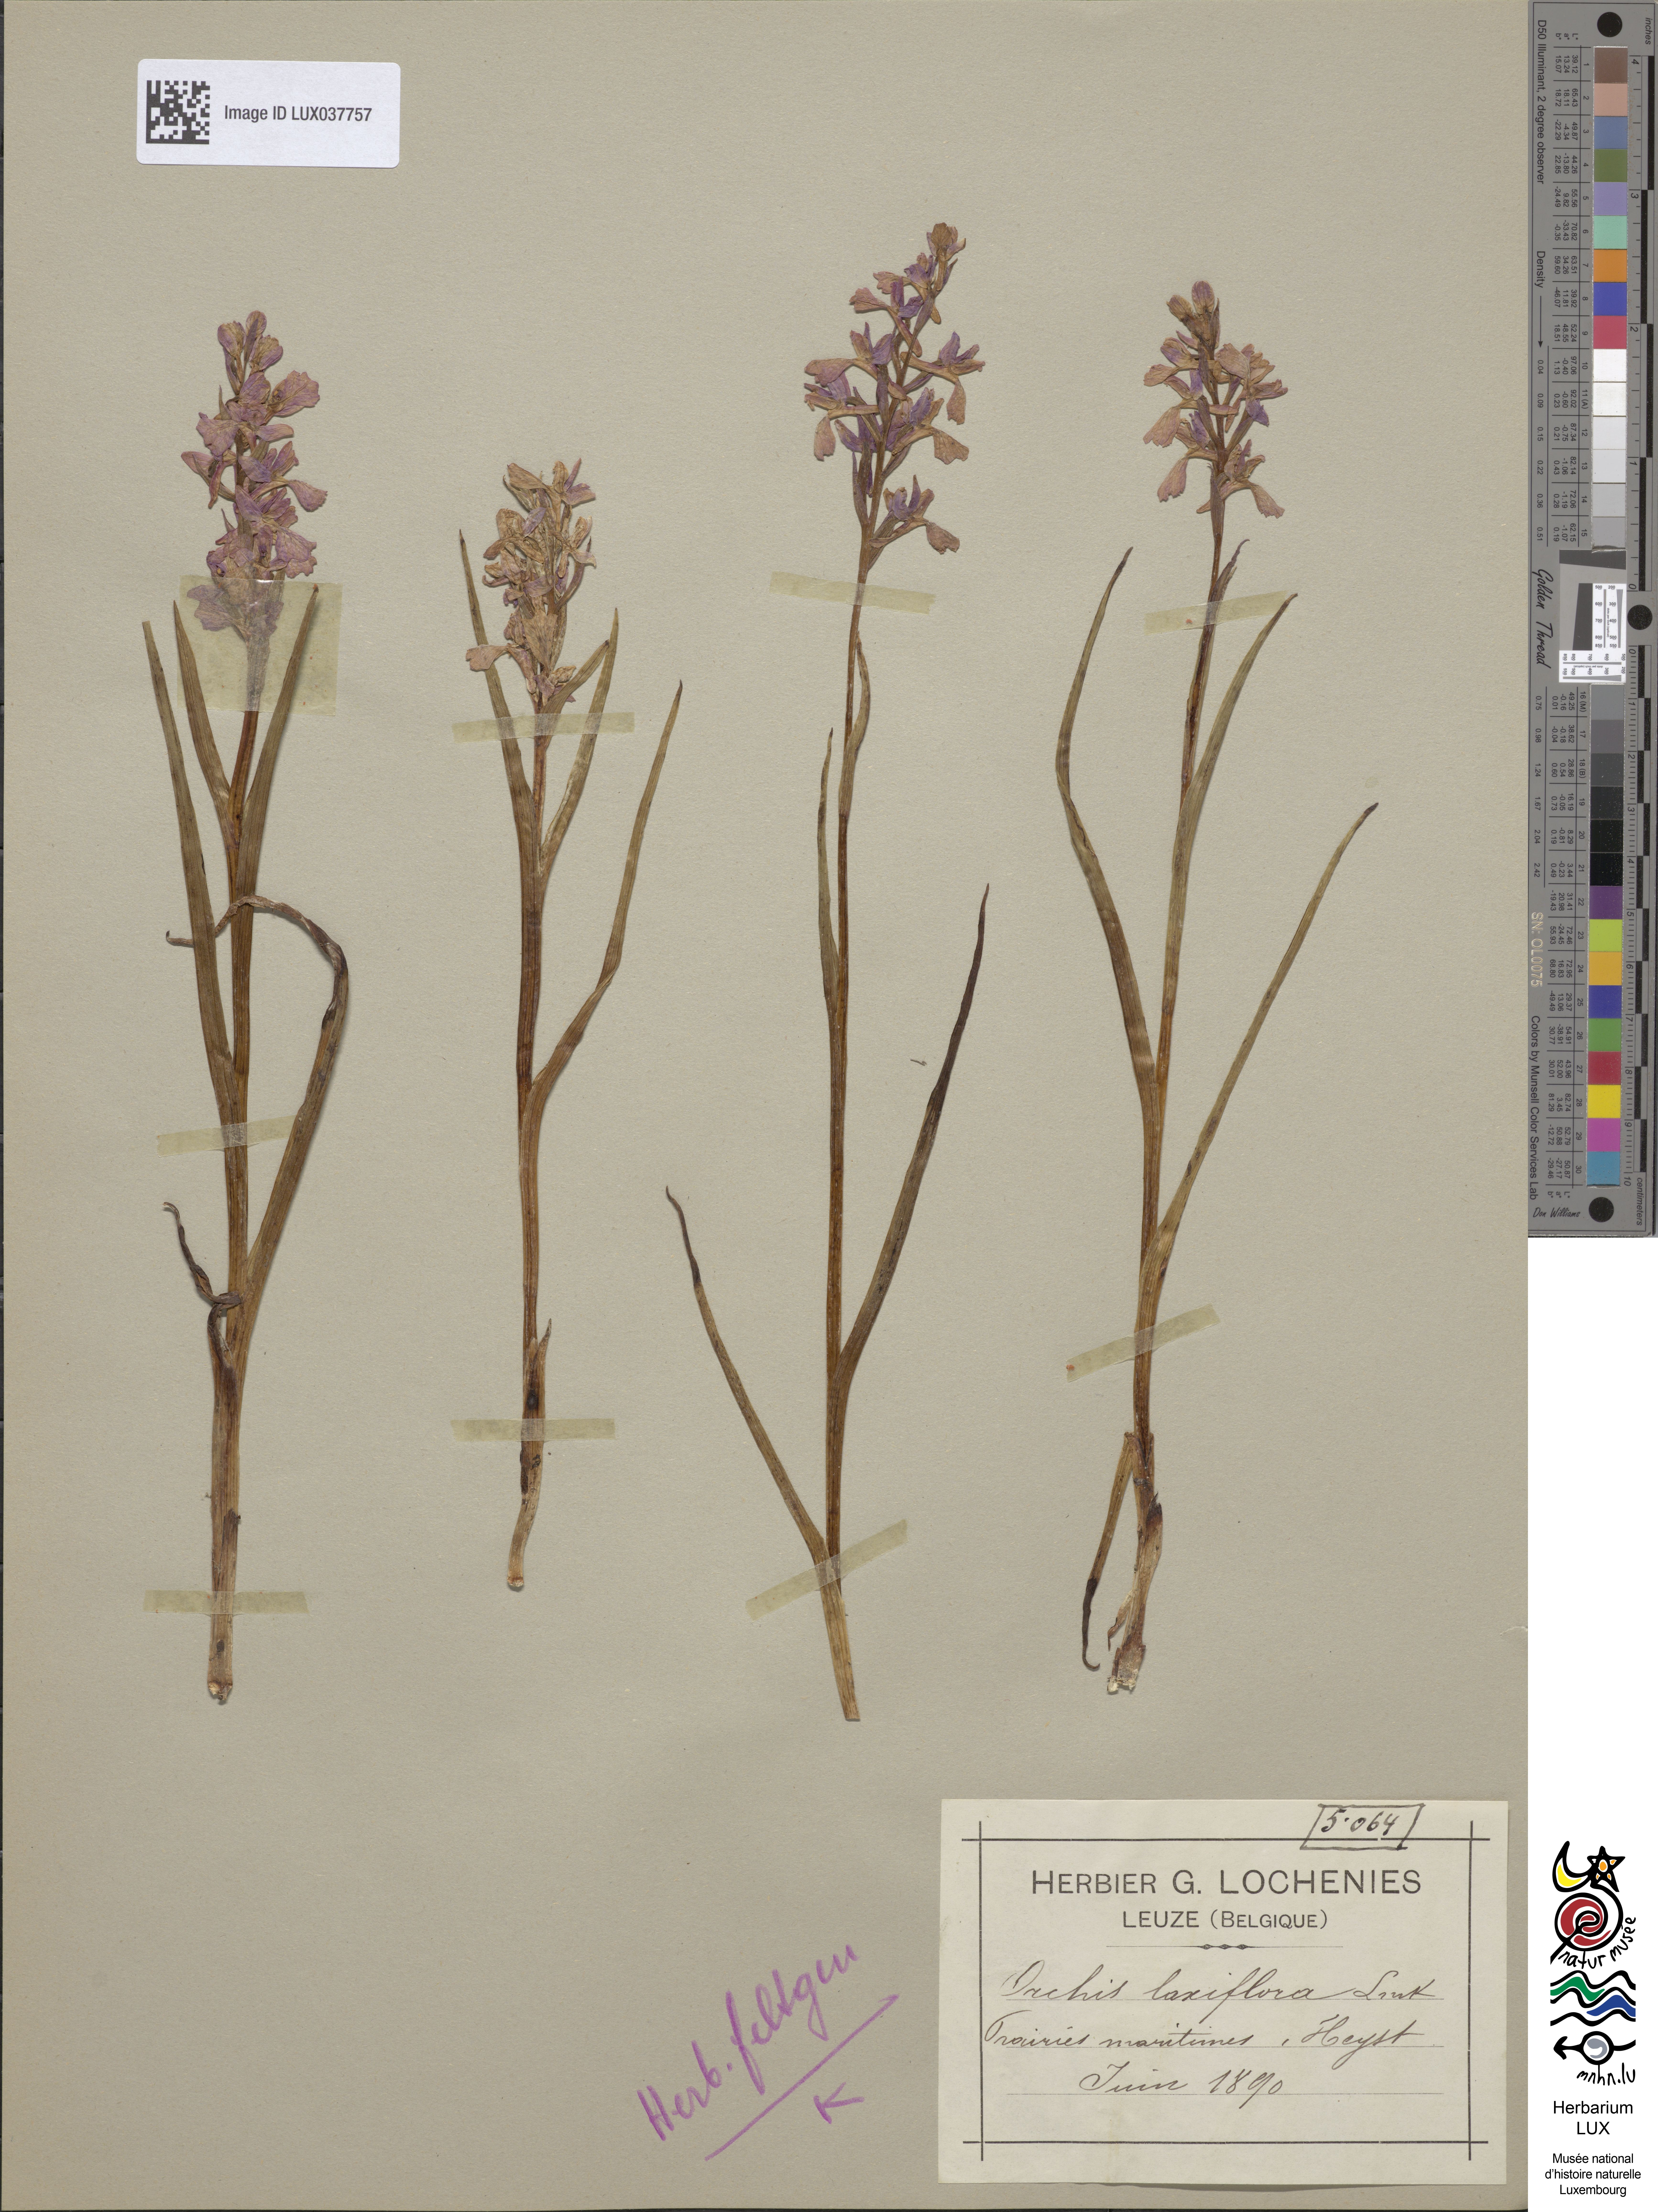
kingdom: Plantae
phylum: Tracheophyta
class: Liliopsida
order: Asparagales
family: Orchidaceae
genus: Anacamptis
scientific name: Anacamptis laxiflora
